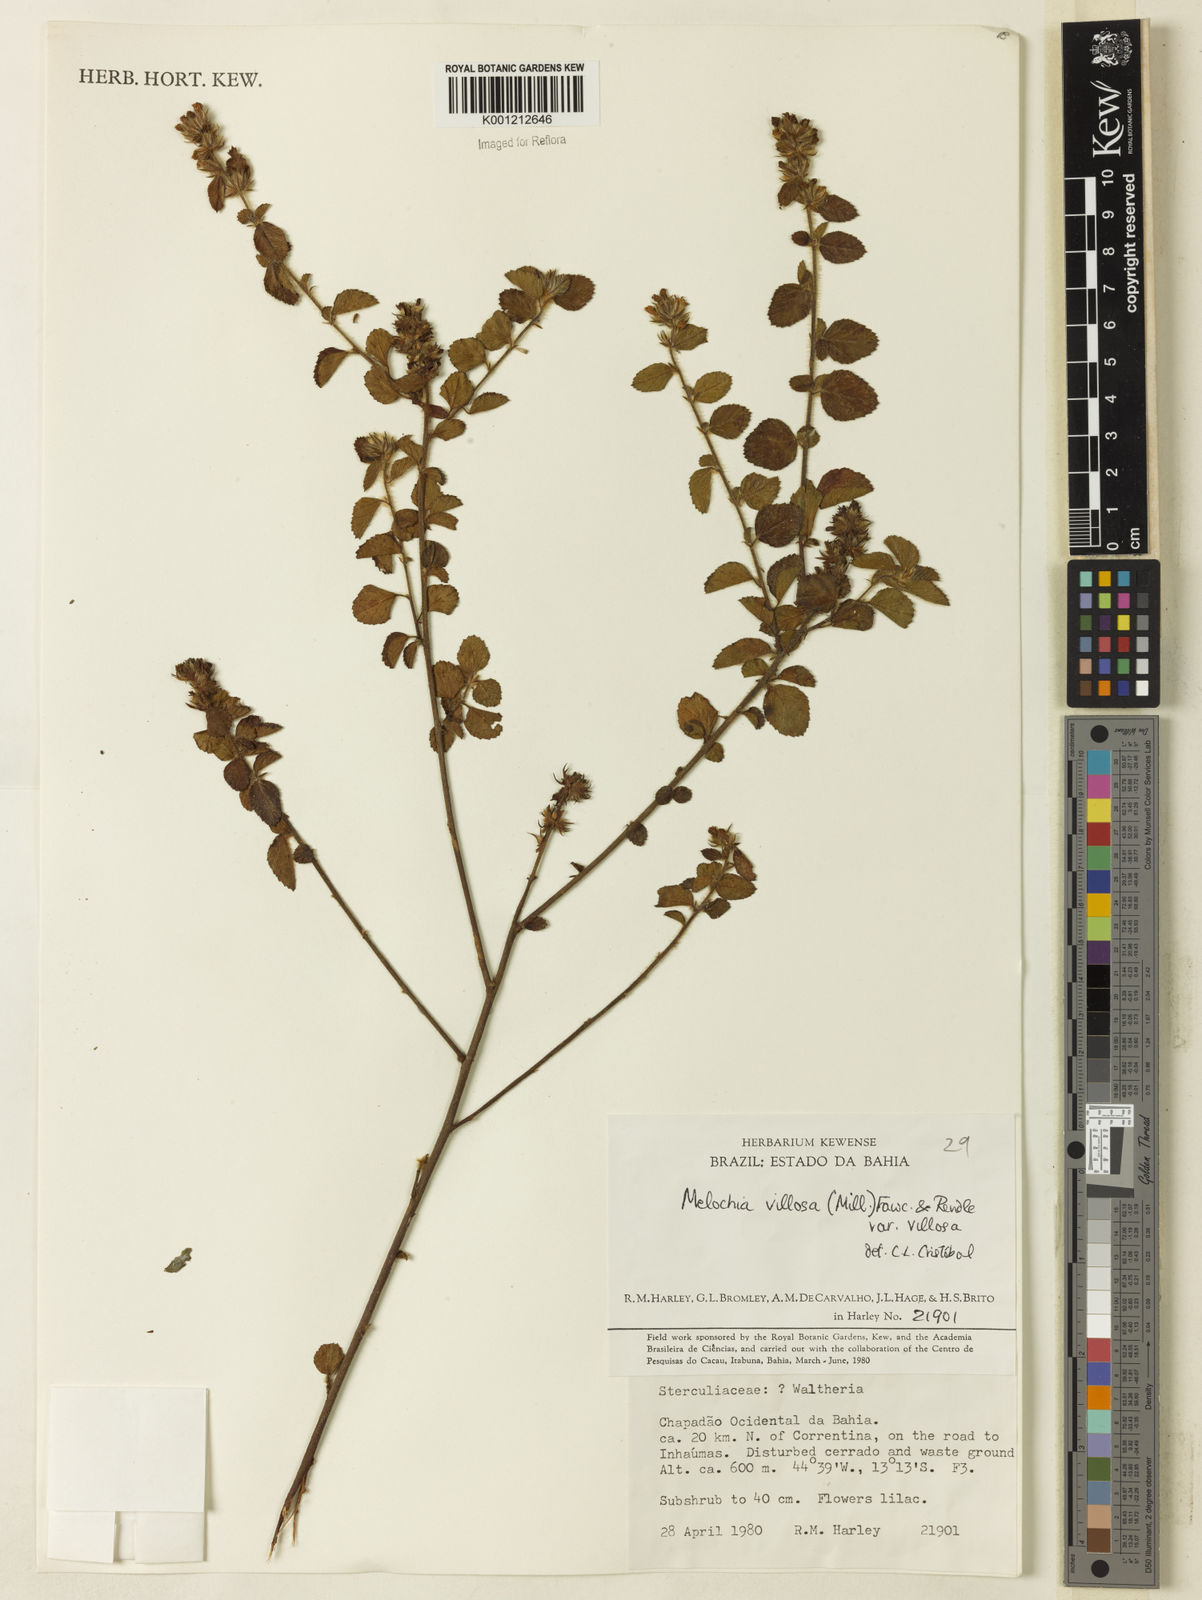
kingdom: Plantae
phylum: Tracheophyta
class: Magnoliopsida
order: Malvales
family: Malvaceae
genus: Melochia
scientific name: Melochia spicata
